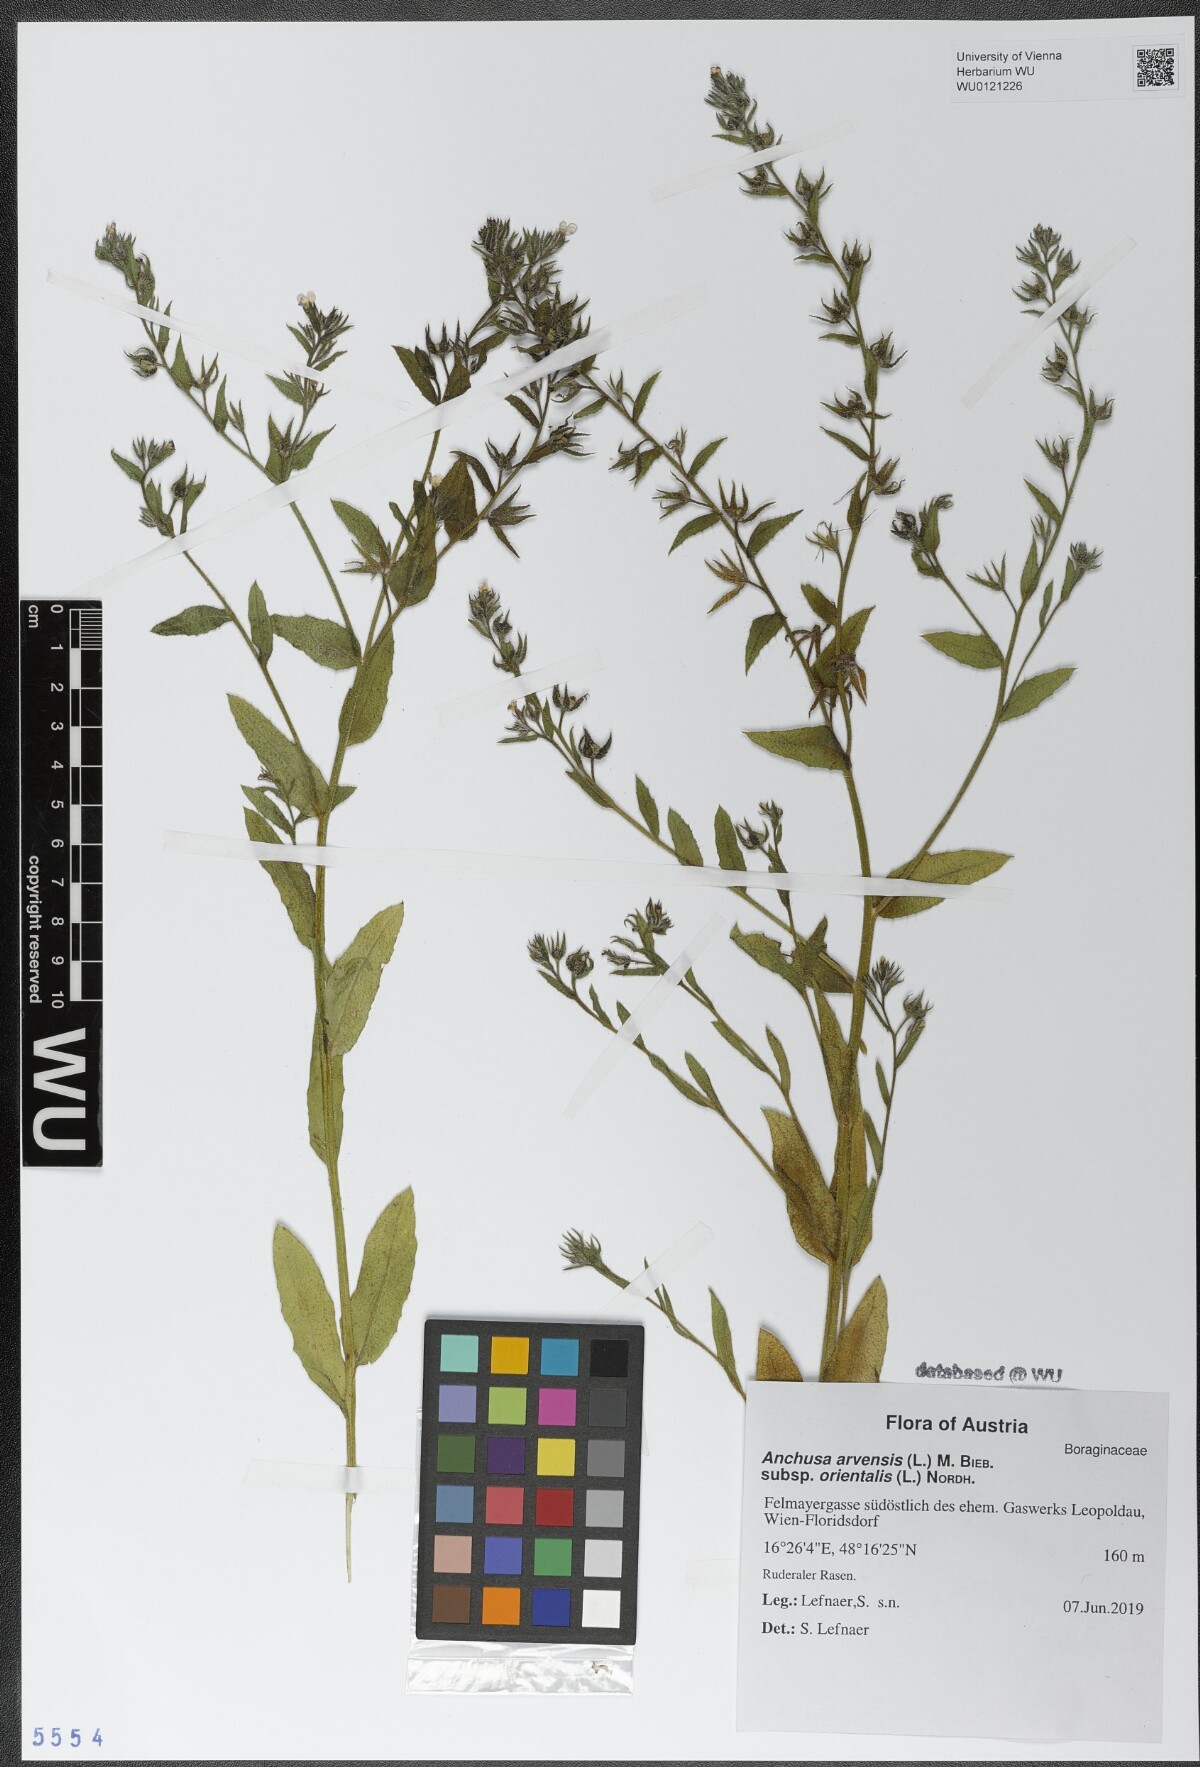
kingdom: Plantae
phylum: Tracheophyta
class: Magnoliopsida
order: Boraginales
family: Boraginaceae
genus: Lycopsis
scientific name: Lycopsis arvensis
